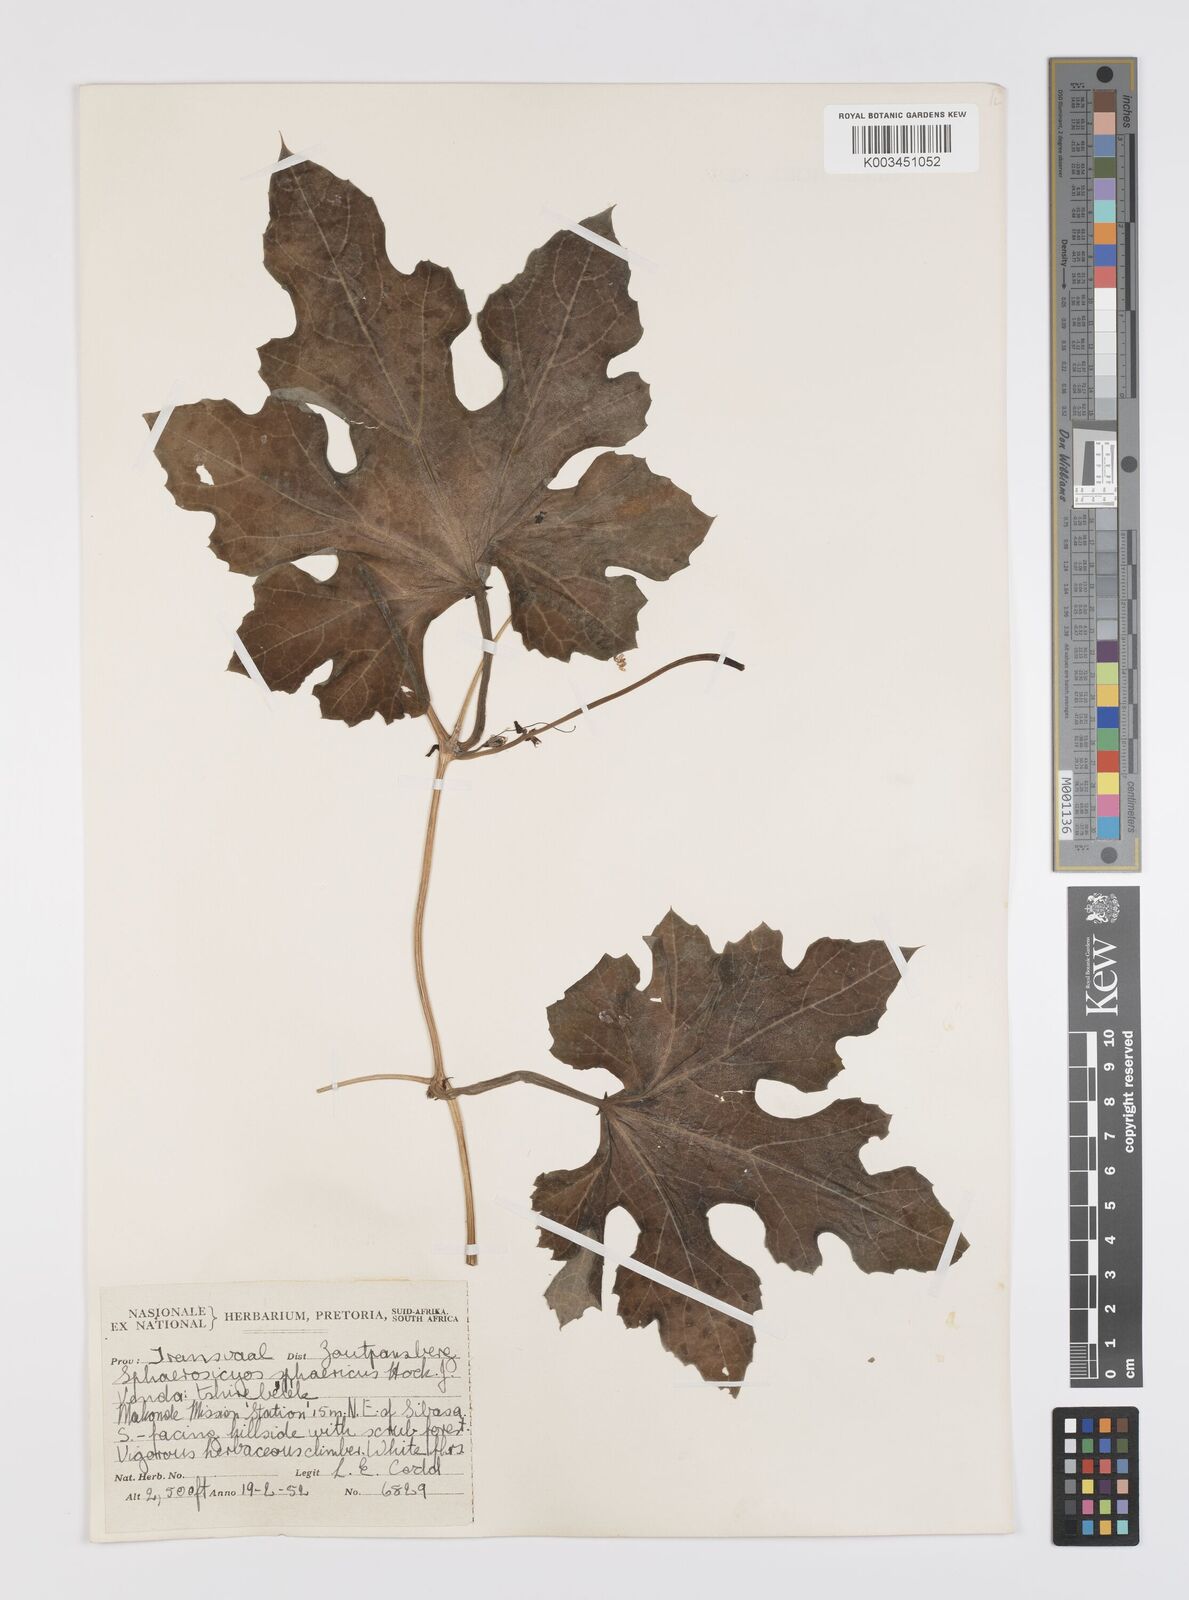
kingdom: Plantae
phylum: Tracheophyta
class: Magnoliopsida
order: Cucurbitales
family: Cucurbitaceae
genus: Lagenaria
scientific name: Lagenaria sphaerica
